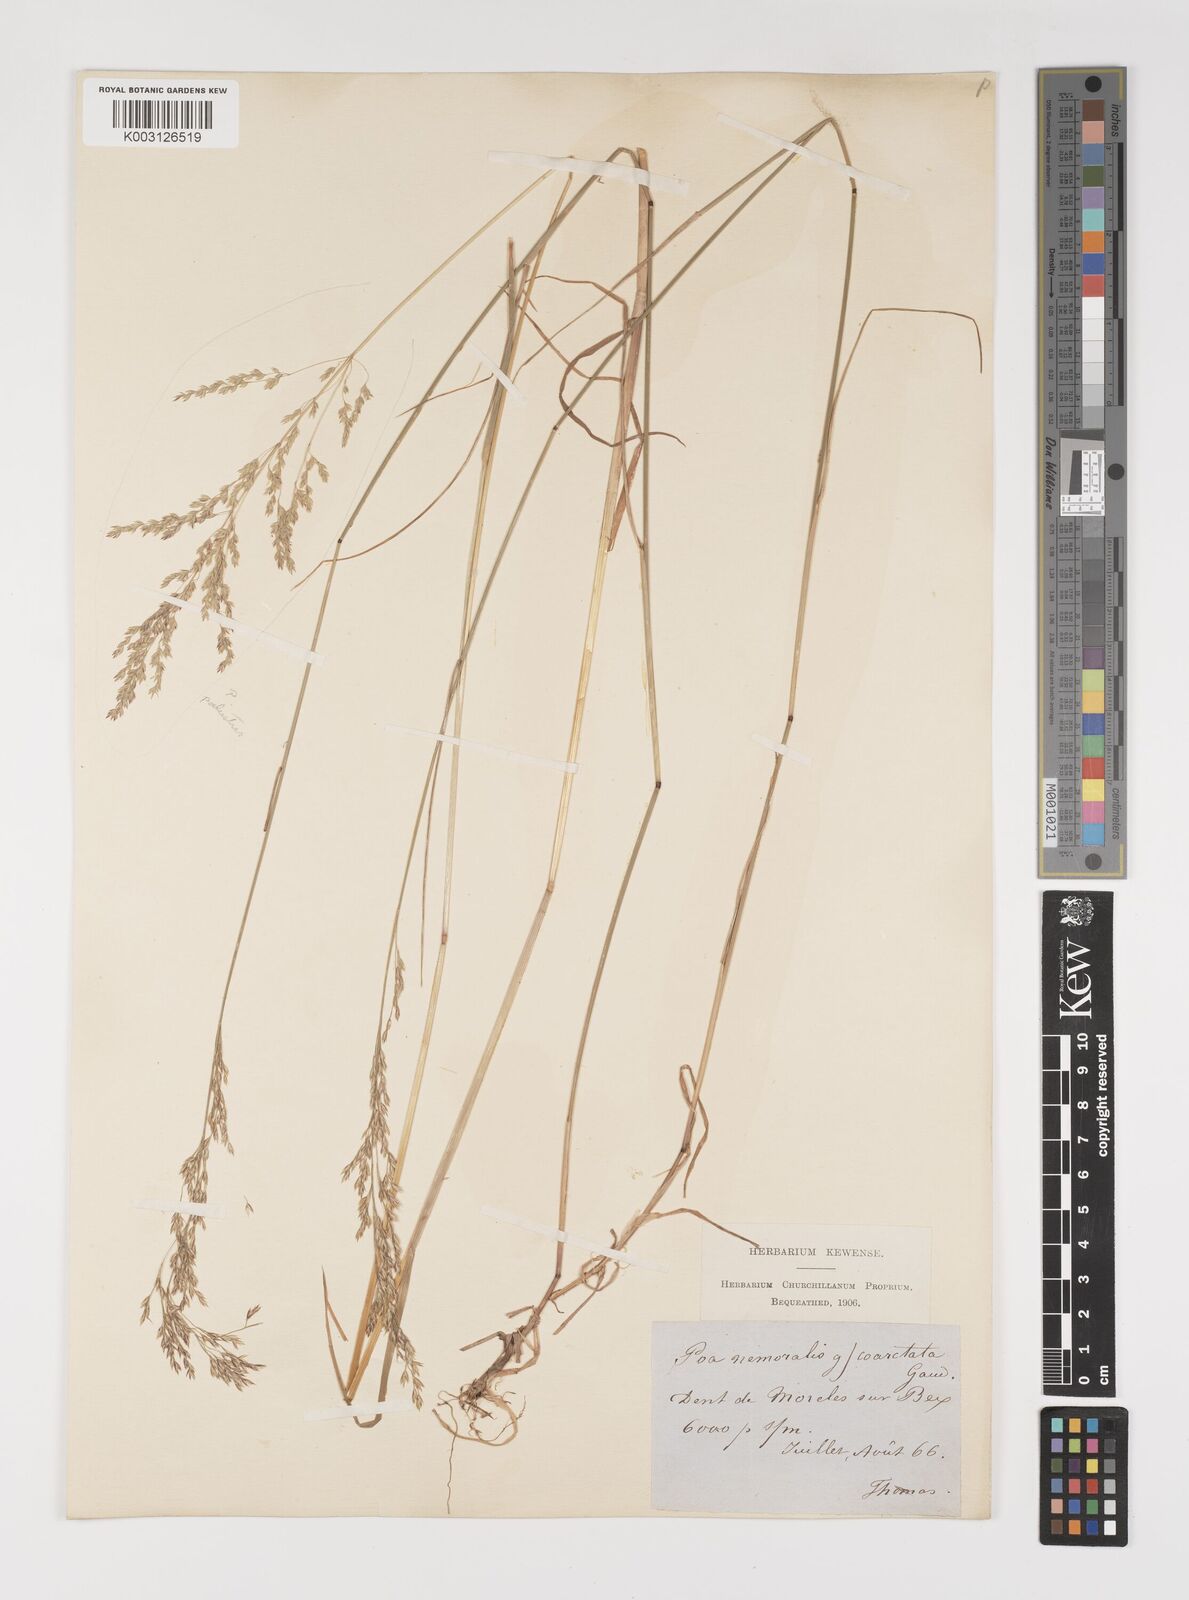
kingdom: Plantae
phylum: Tracheophyta
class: Liliopsida
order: Poales
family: Poaceae
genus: Poa
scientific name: Poa nemoralis
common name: Wood bluegrass
